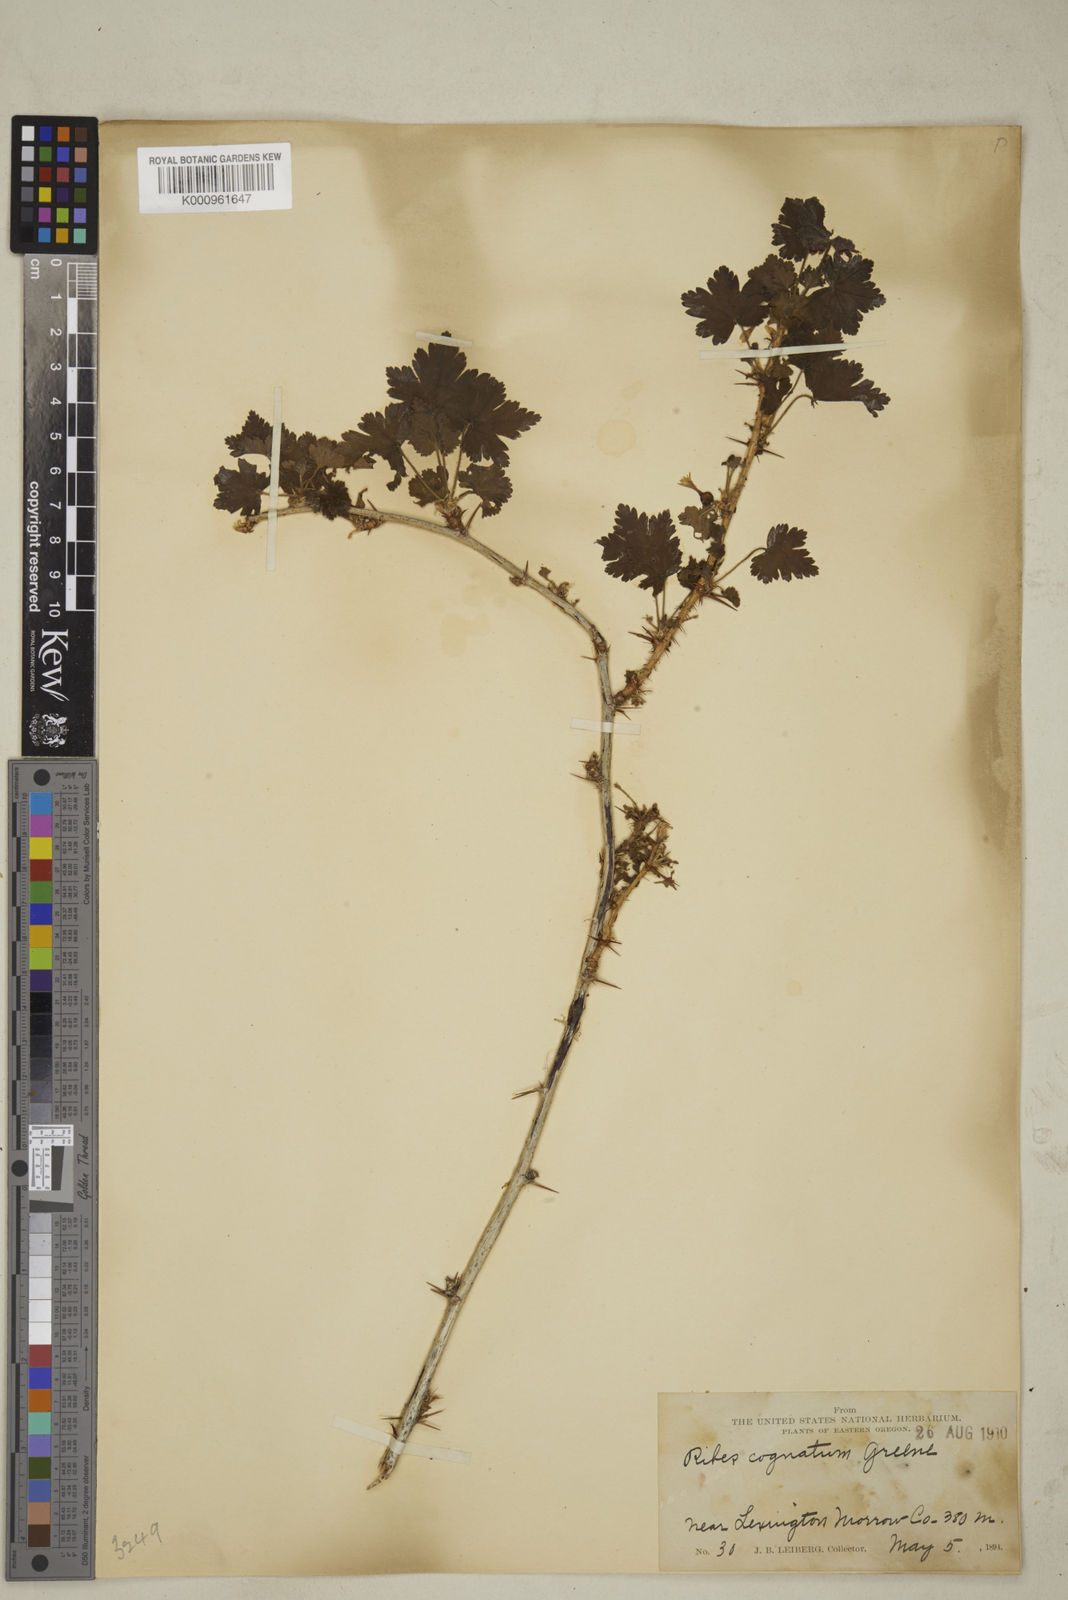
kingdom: Plantae
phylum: Tracheophyta
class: Magnoliopsida
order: Saxifragales
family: Grossulariaceae
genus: Ribes
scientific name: Ribes oxyacanthoides
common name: Northern gooseberry
